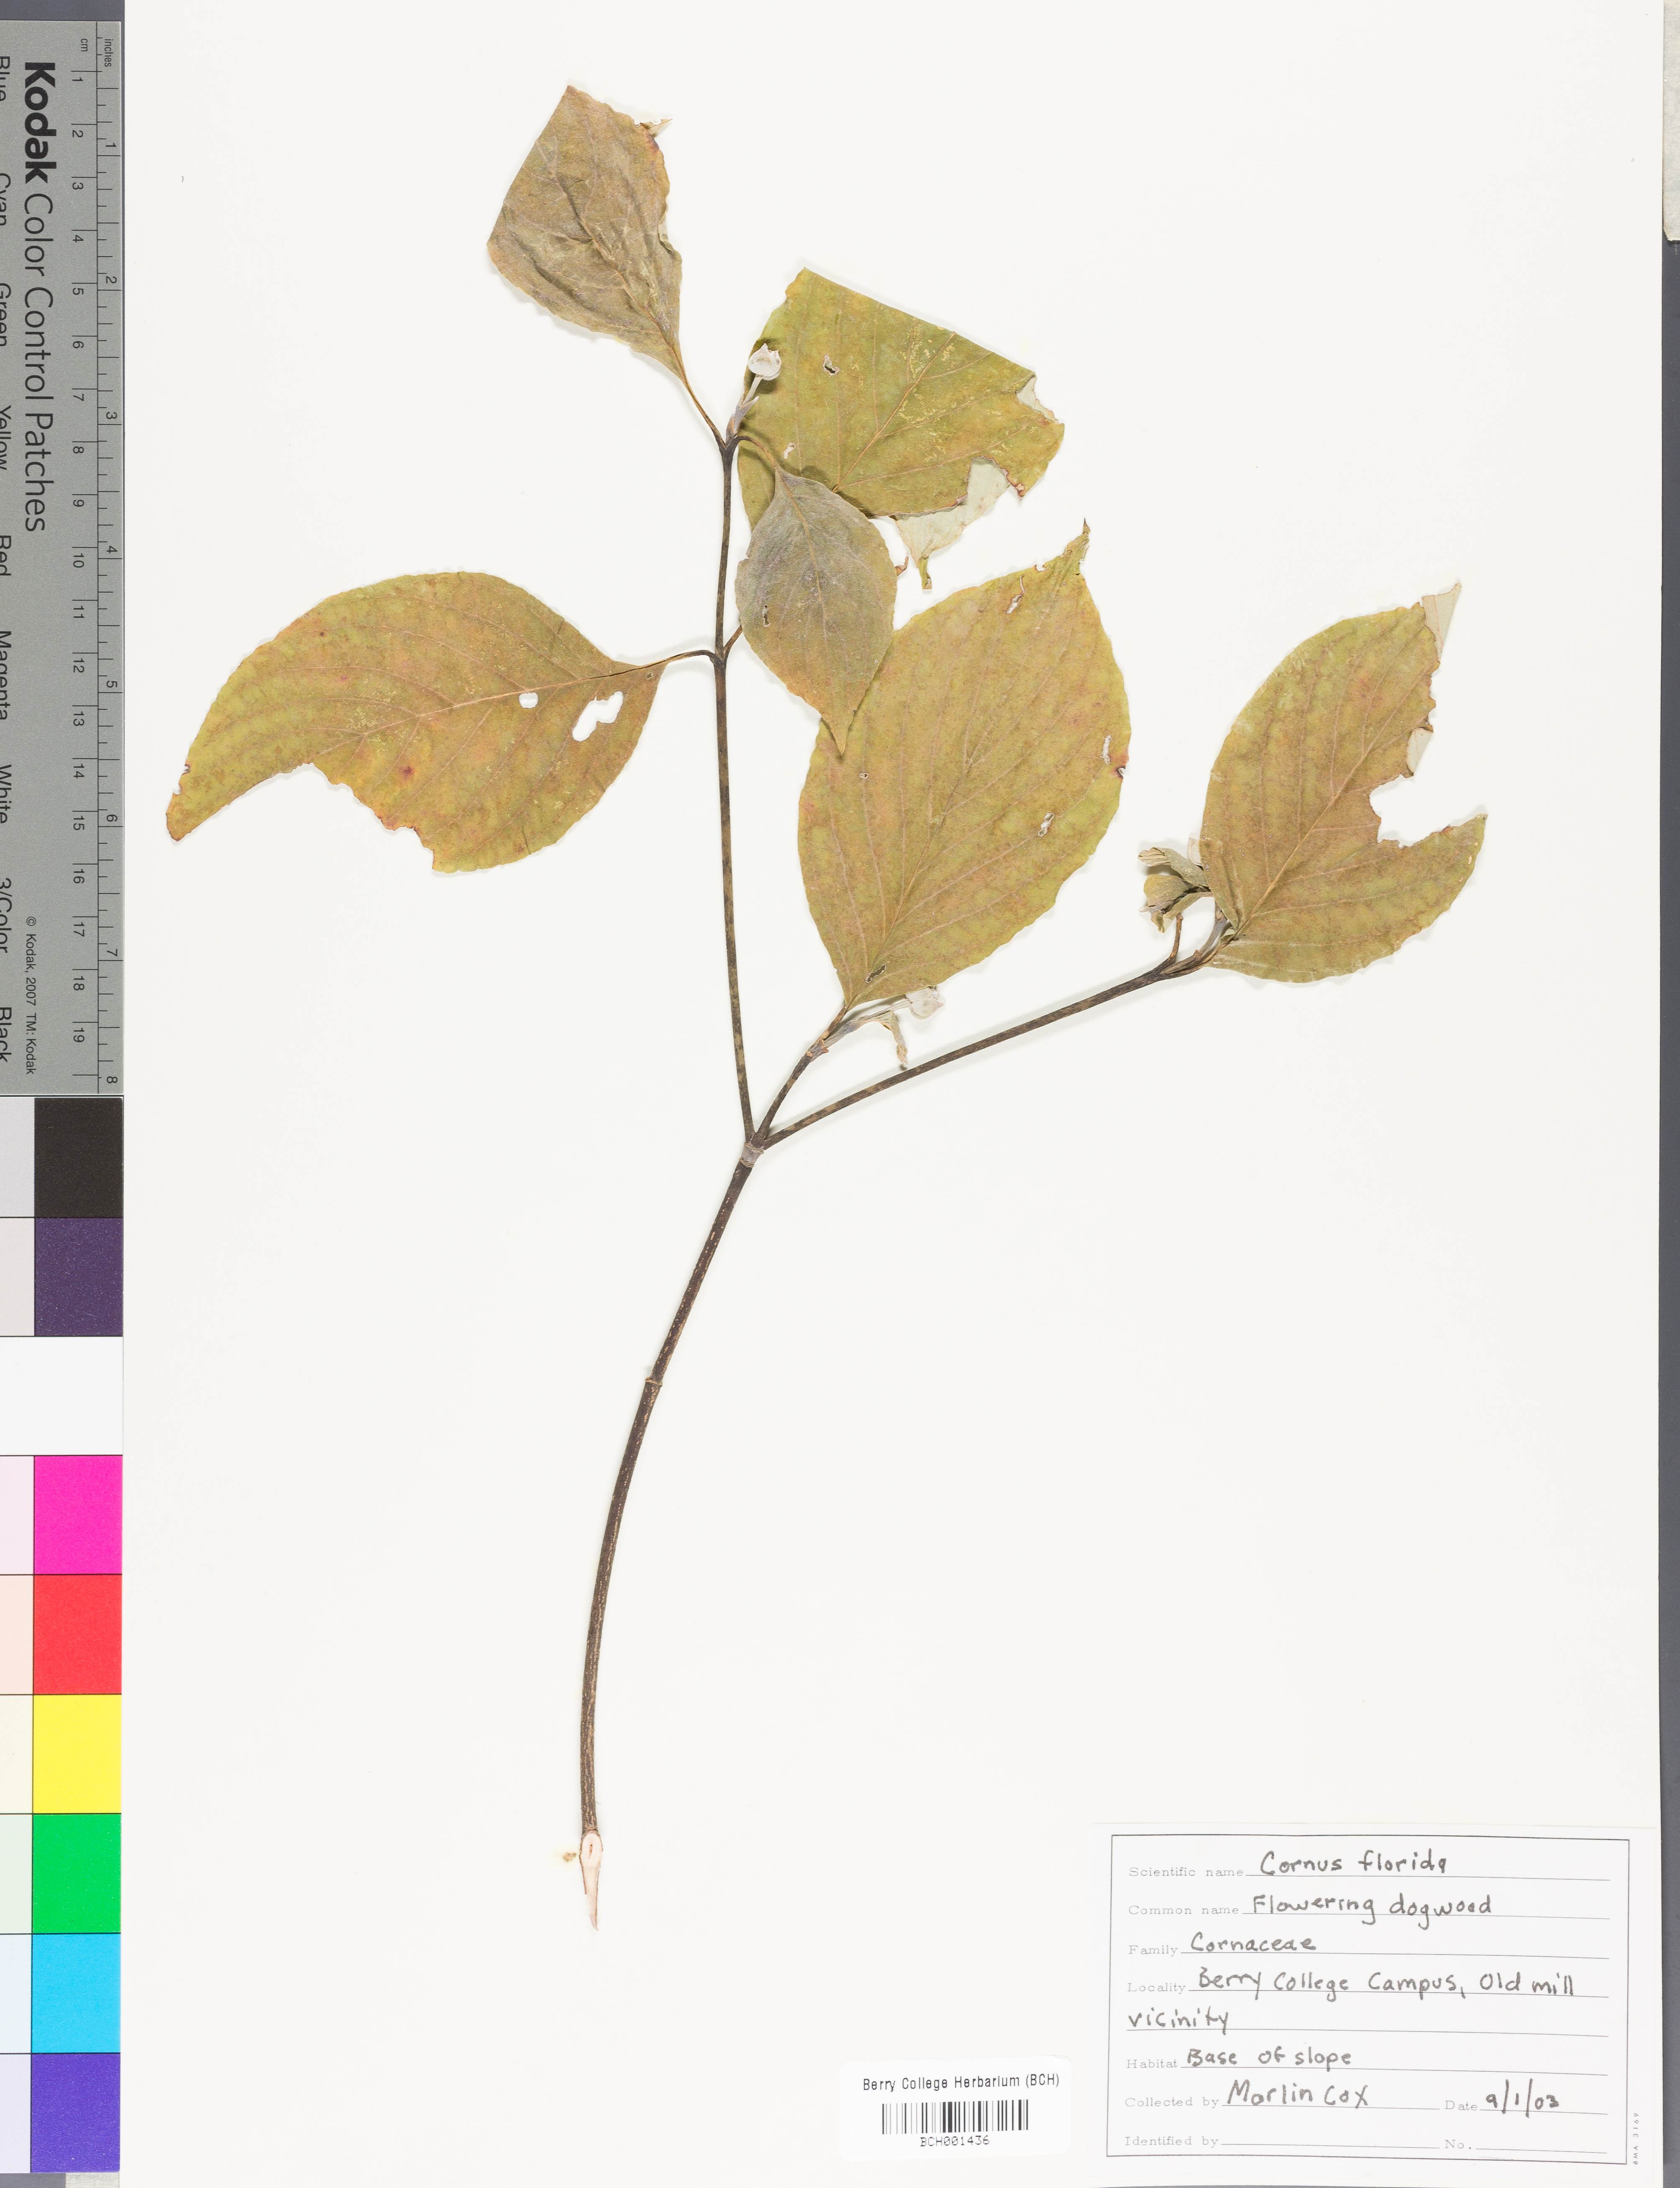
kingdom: Plantae
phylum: Tracheophyta
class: Magnoliopsida
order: Cornales
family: Cornaceae
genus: Cornus
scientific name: Cornus florida
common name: Flowering dogwood
